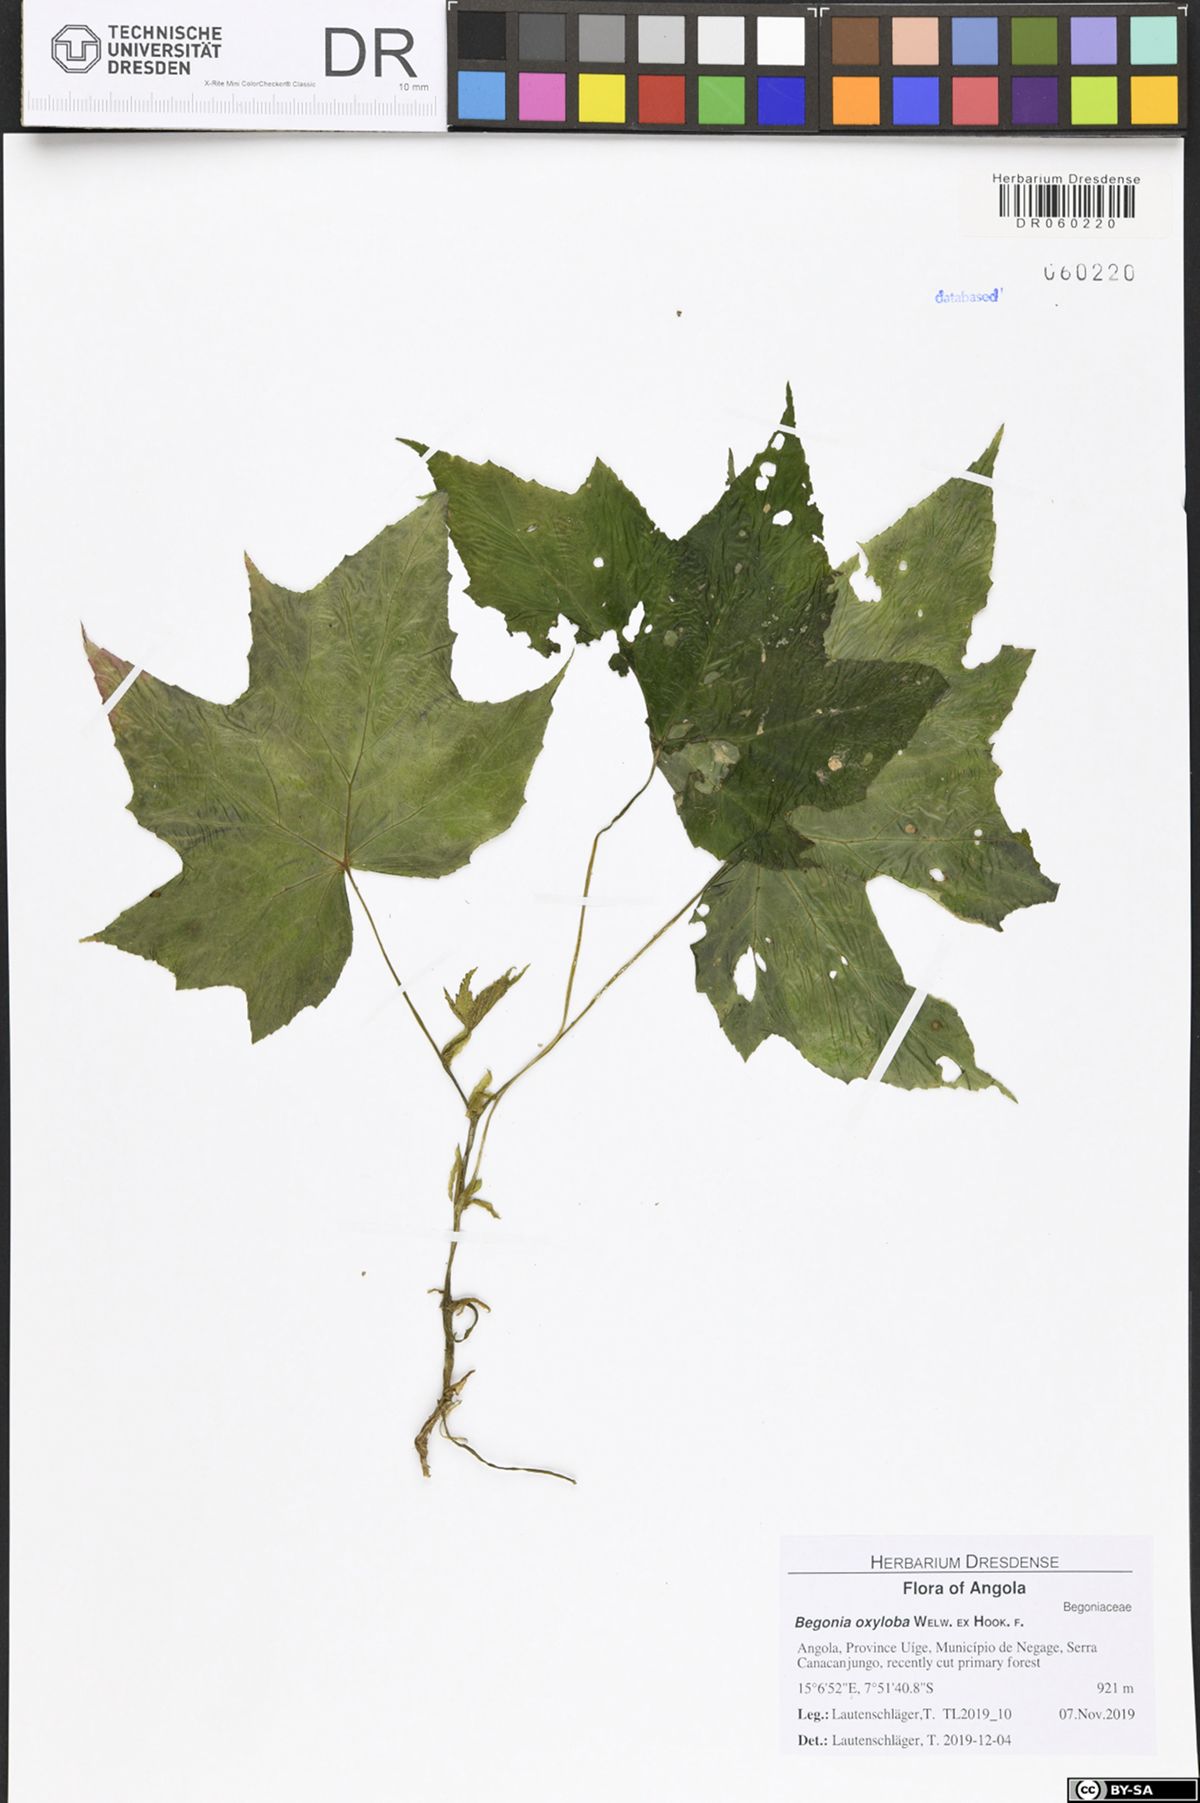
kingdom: Plantae
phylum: Tracheophyta
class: Magnoliopsida
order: Cucurbitales
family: Begoniaceae
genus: Begonia
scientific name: Begonia oxyloba
